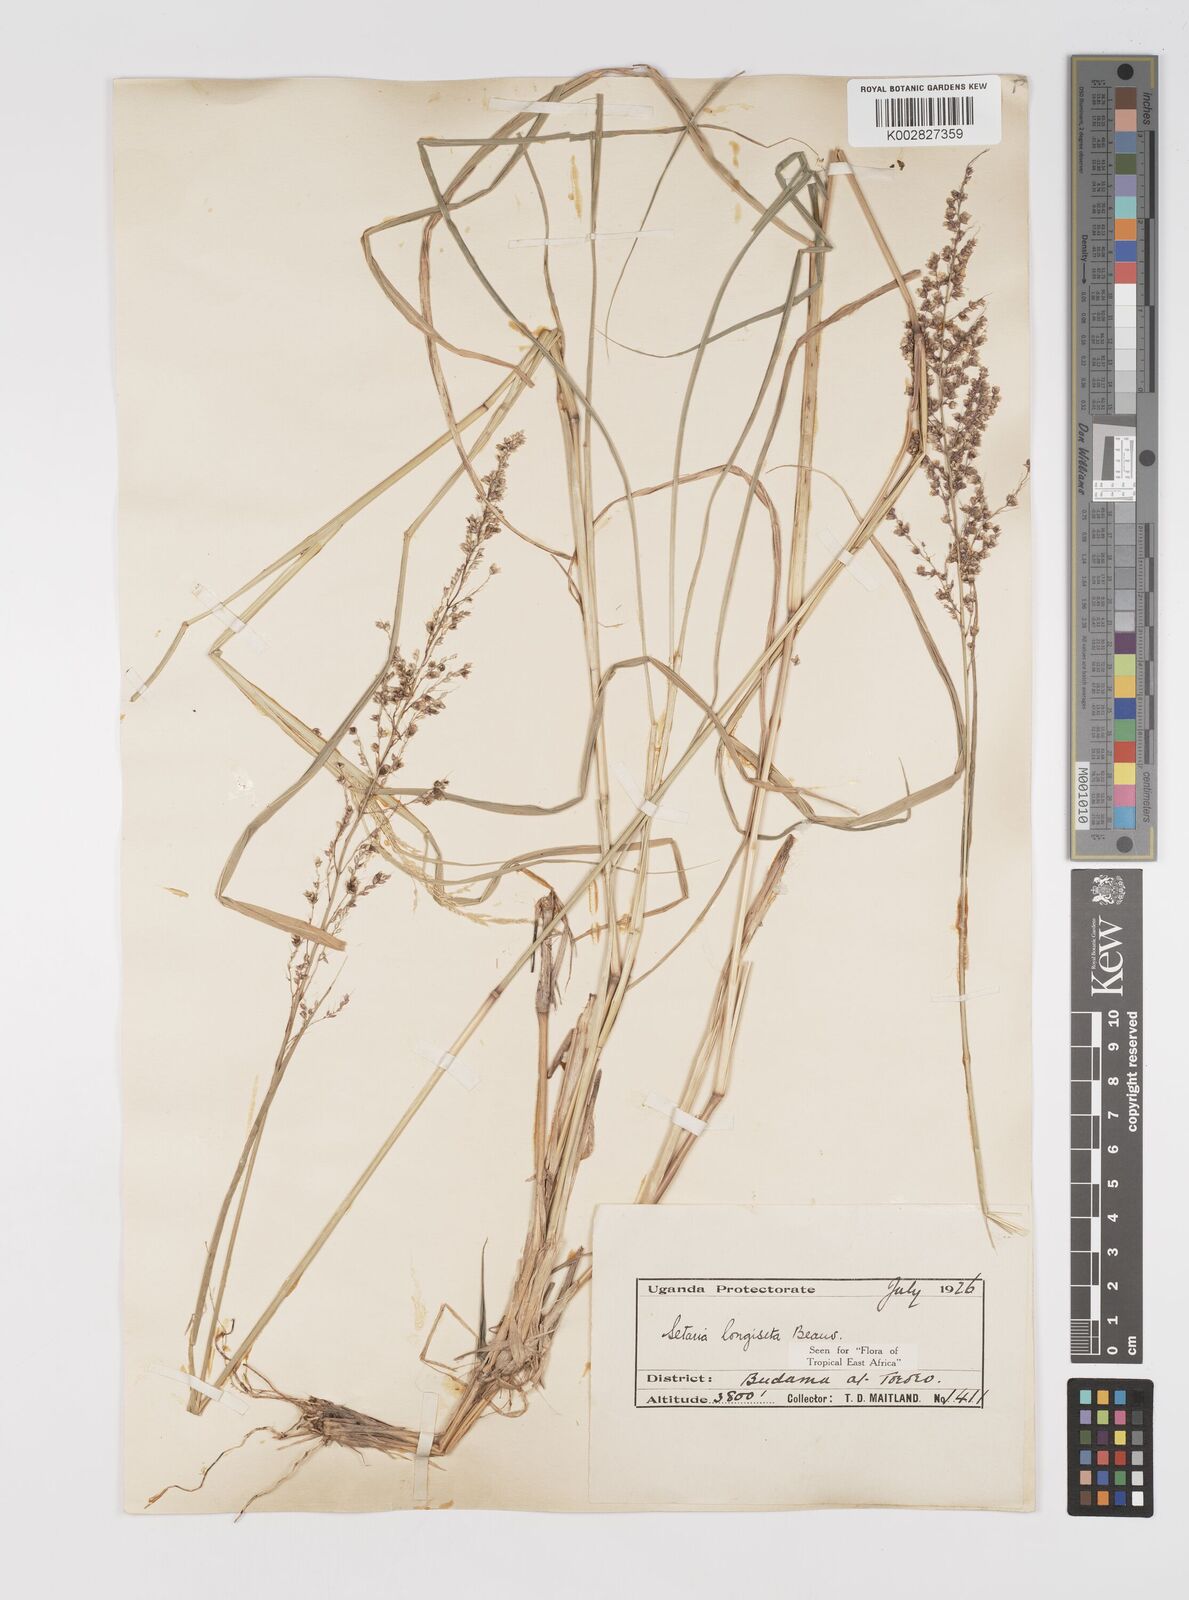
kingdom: Plantae
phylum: Tracheophyta
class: Liliopsida
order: Poales
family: Poaceae
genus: Setaria
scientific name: Setaria longiseta
